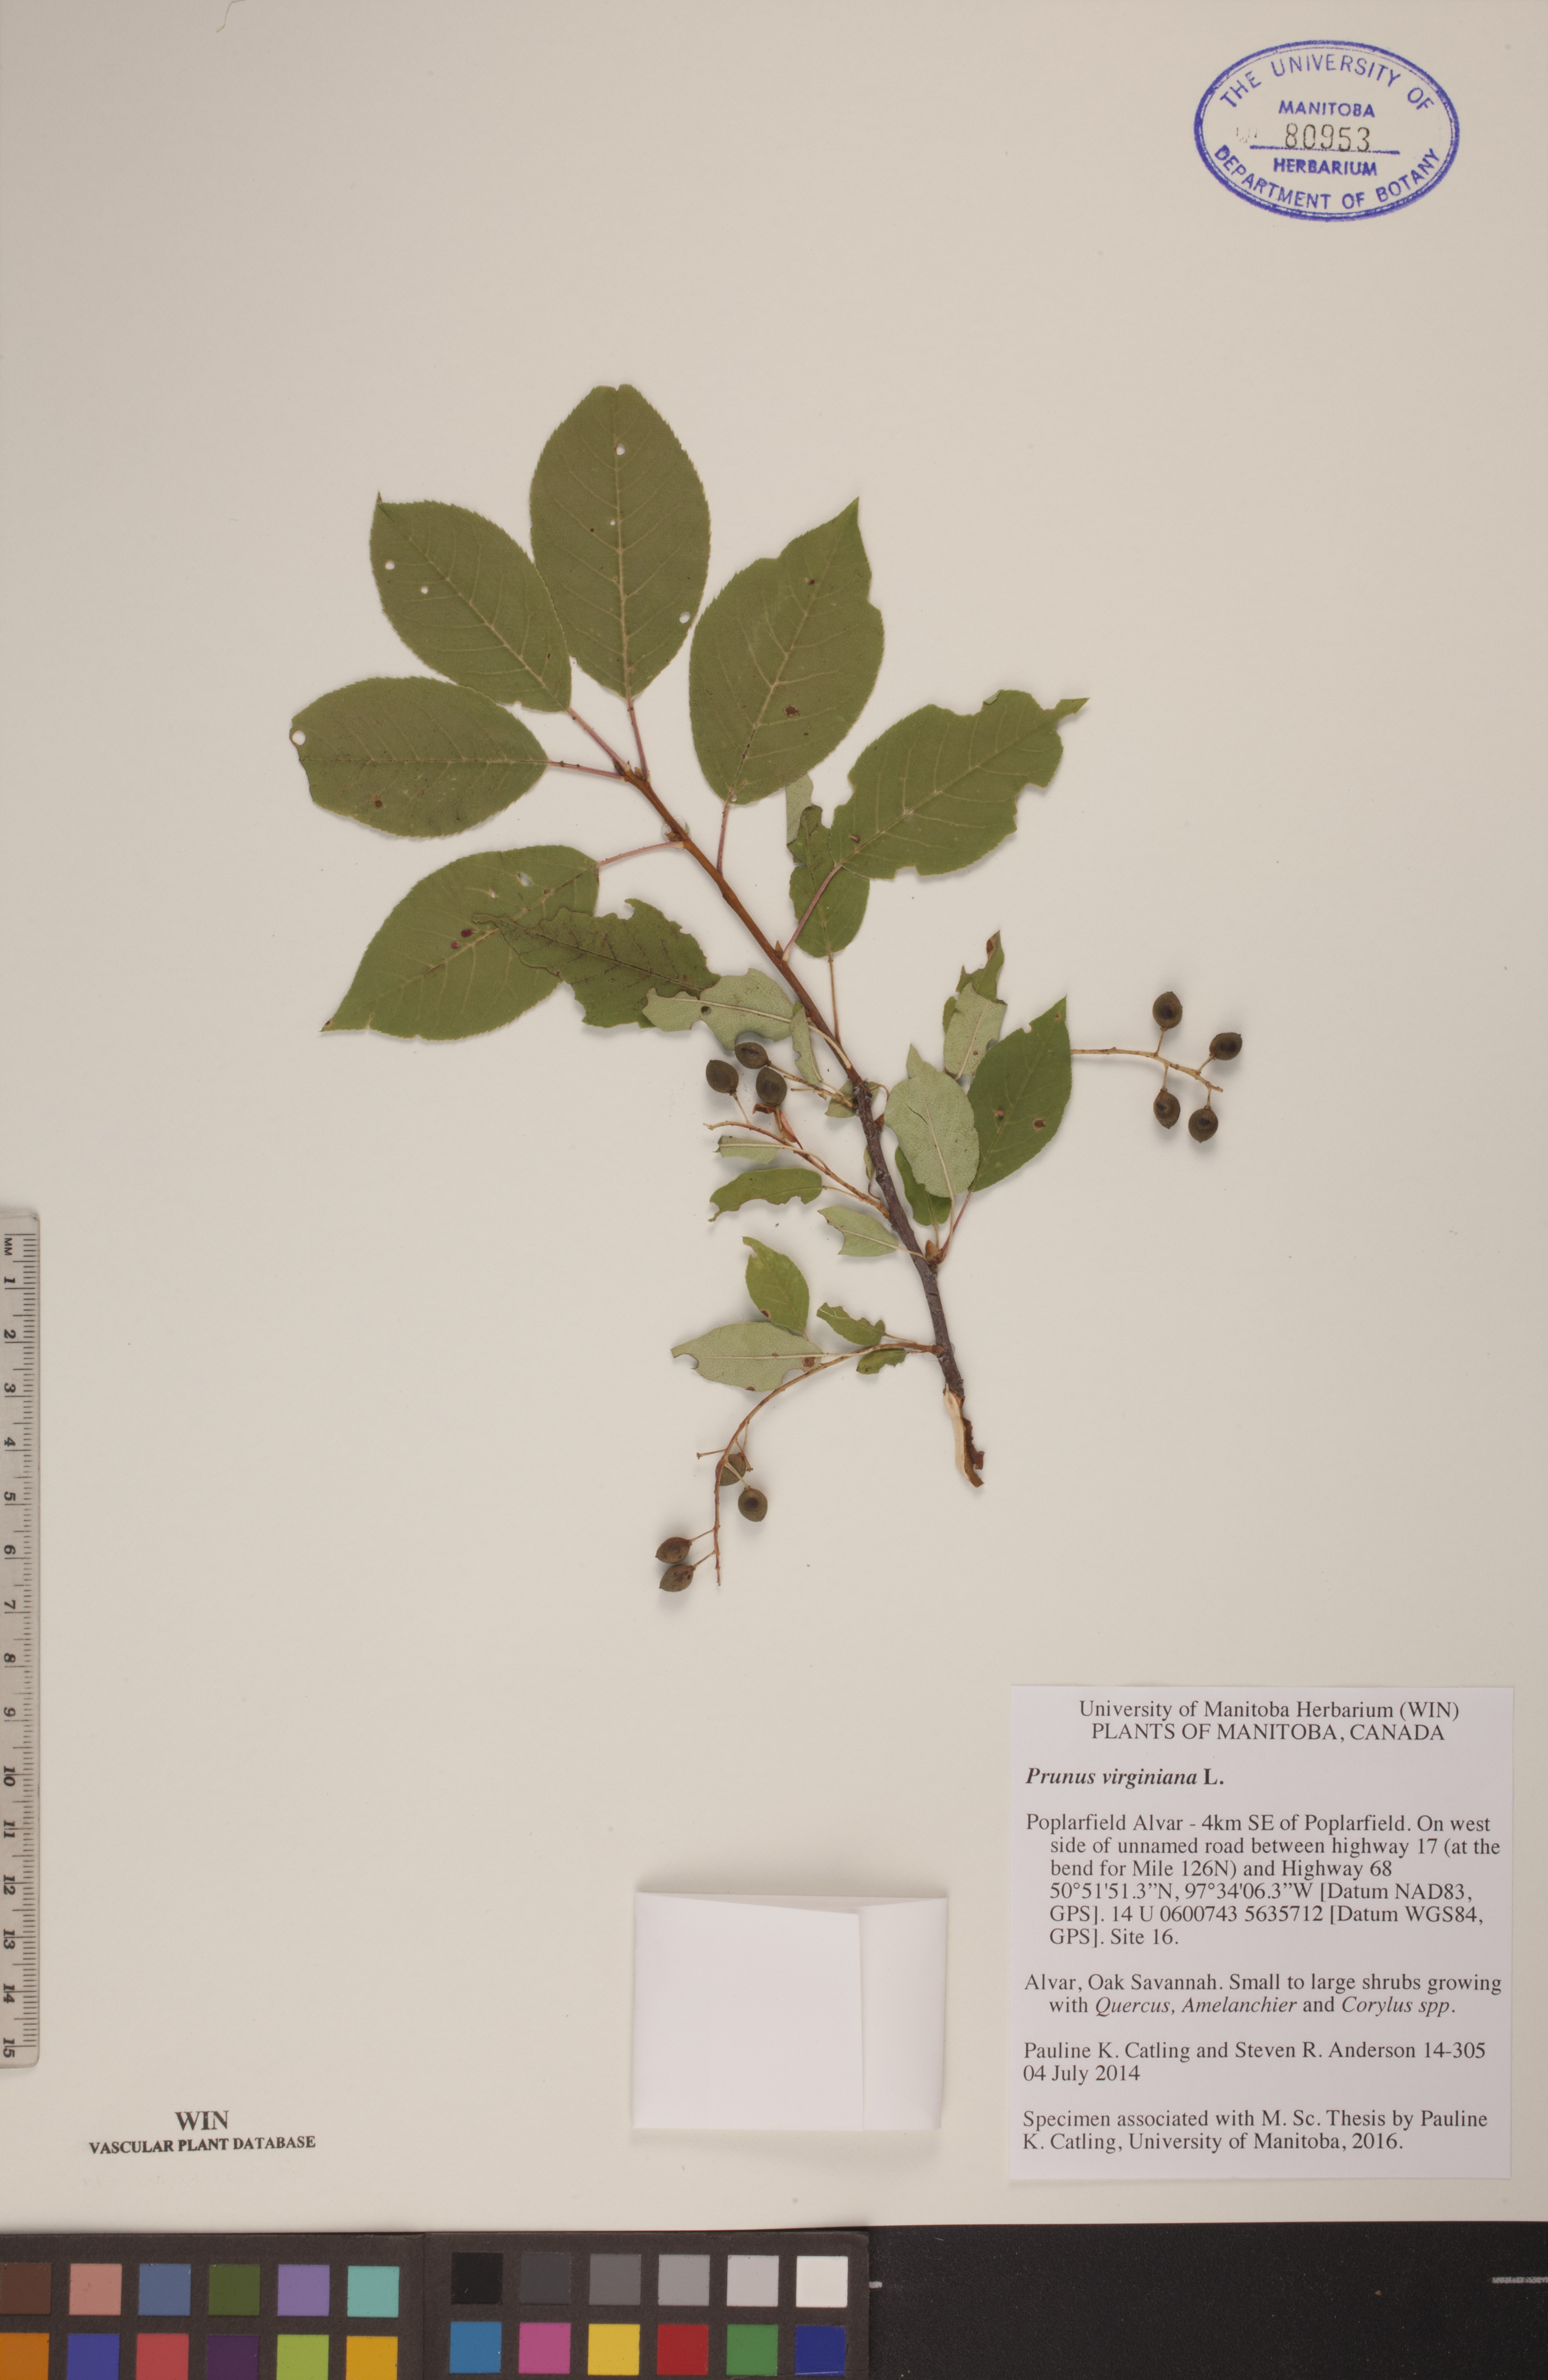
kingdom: Plantae
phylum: Tracheophyta
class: Magnoliopsida
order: Rosales
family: Rosaceae
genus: Prunus
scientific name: Prunus virginiana
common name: Chokecherry
